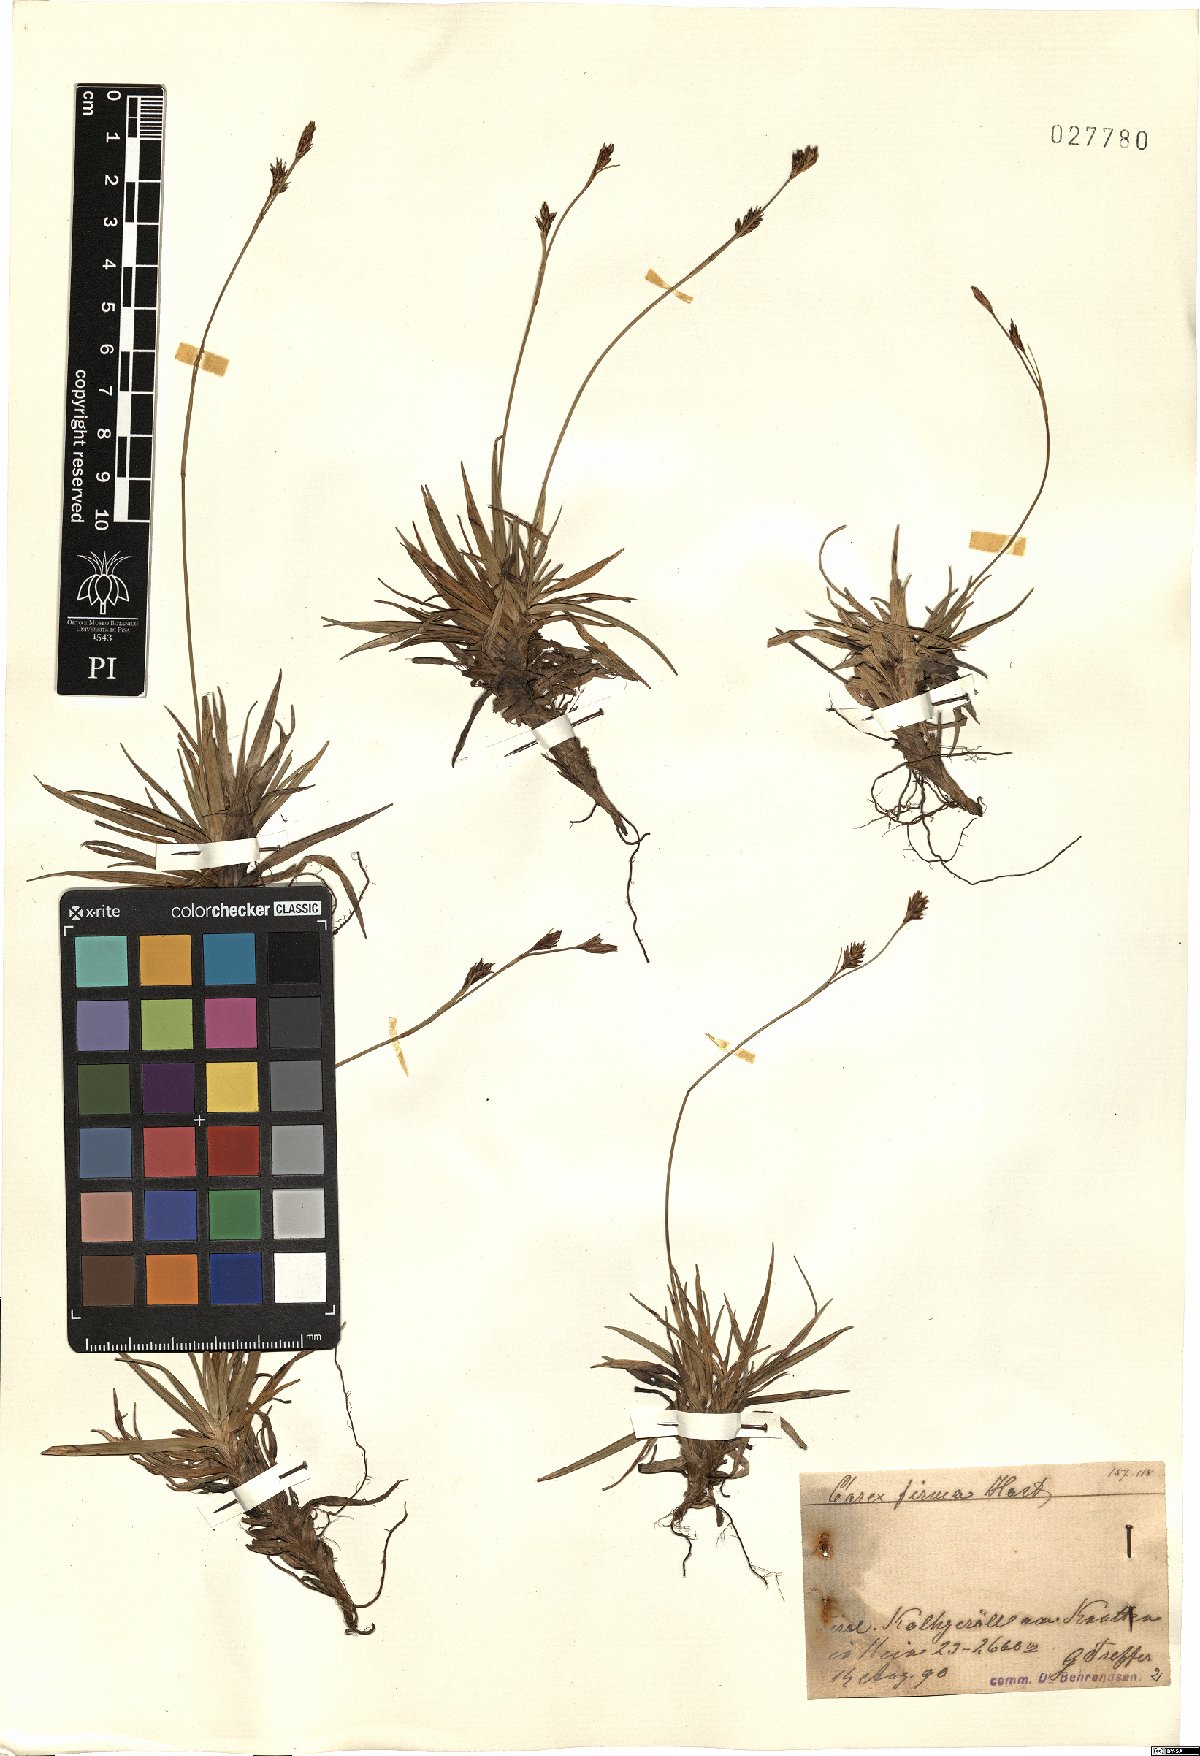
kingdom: Plantae
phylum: Tracheophyta
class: Liliopsida
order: Poales
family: Cyperaceae
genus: Carex
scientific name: Carex firma
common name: Dwarf pillow sedge
